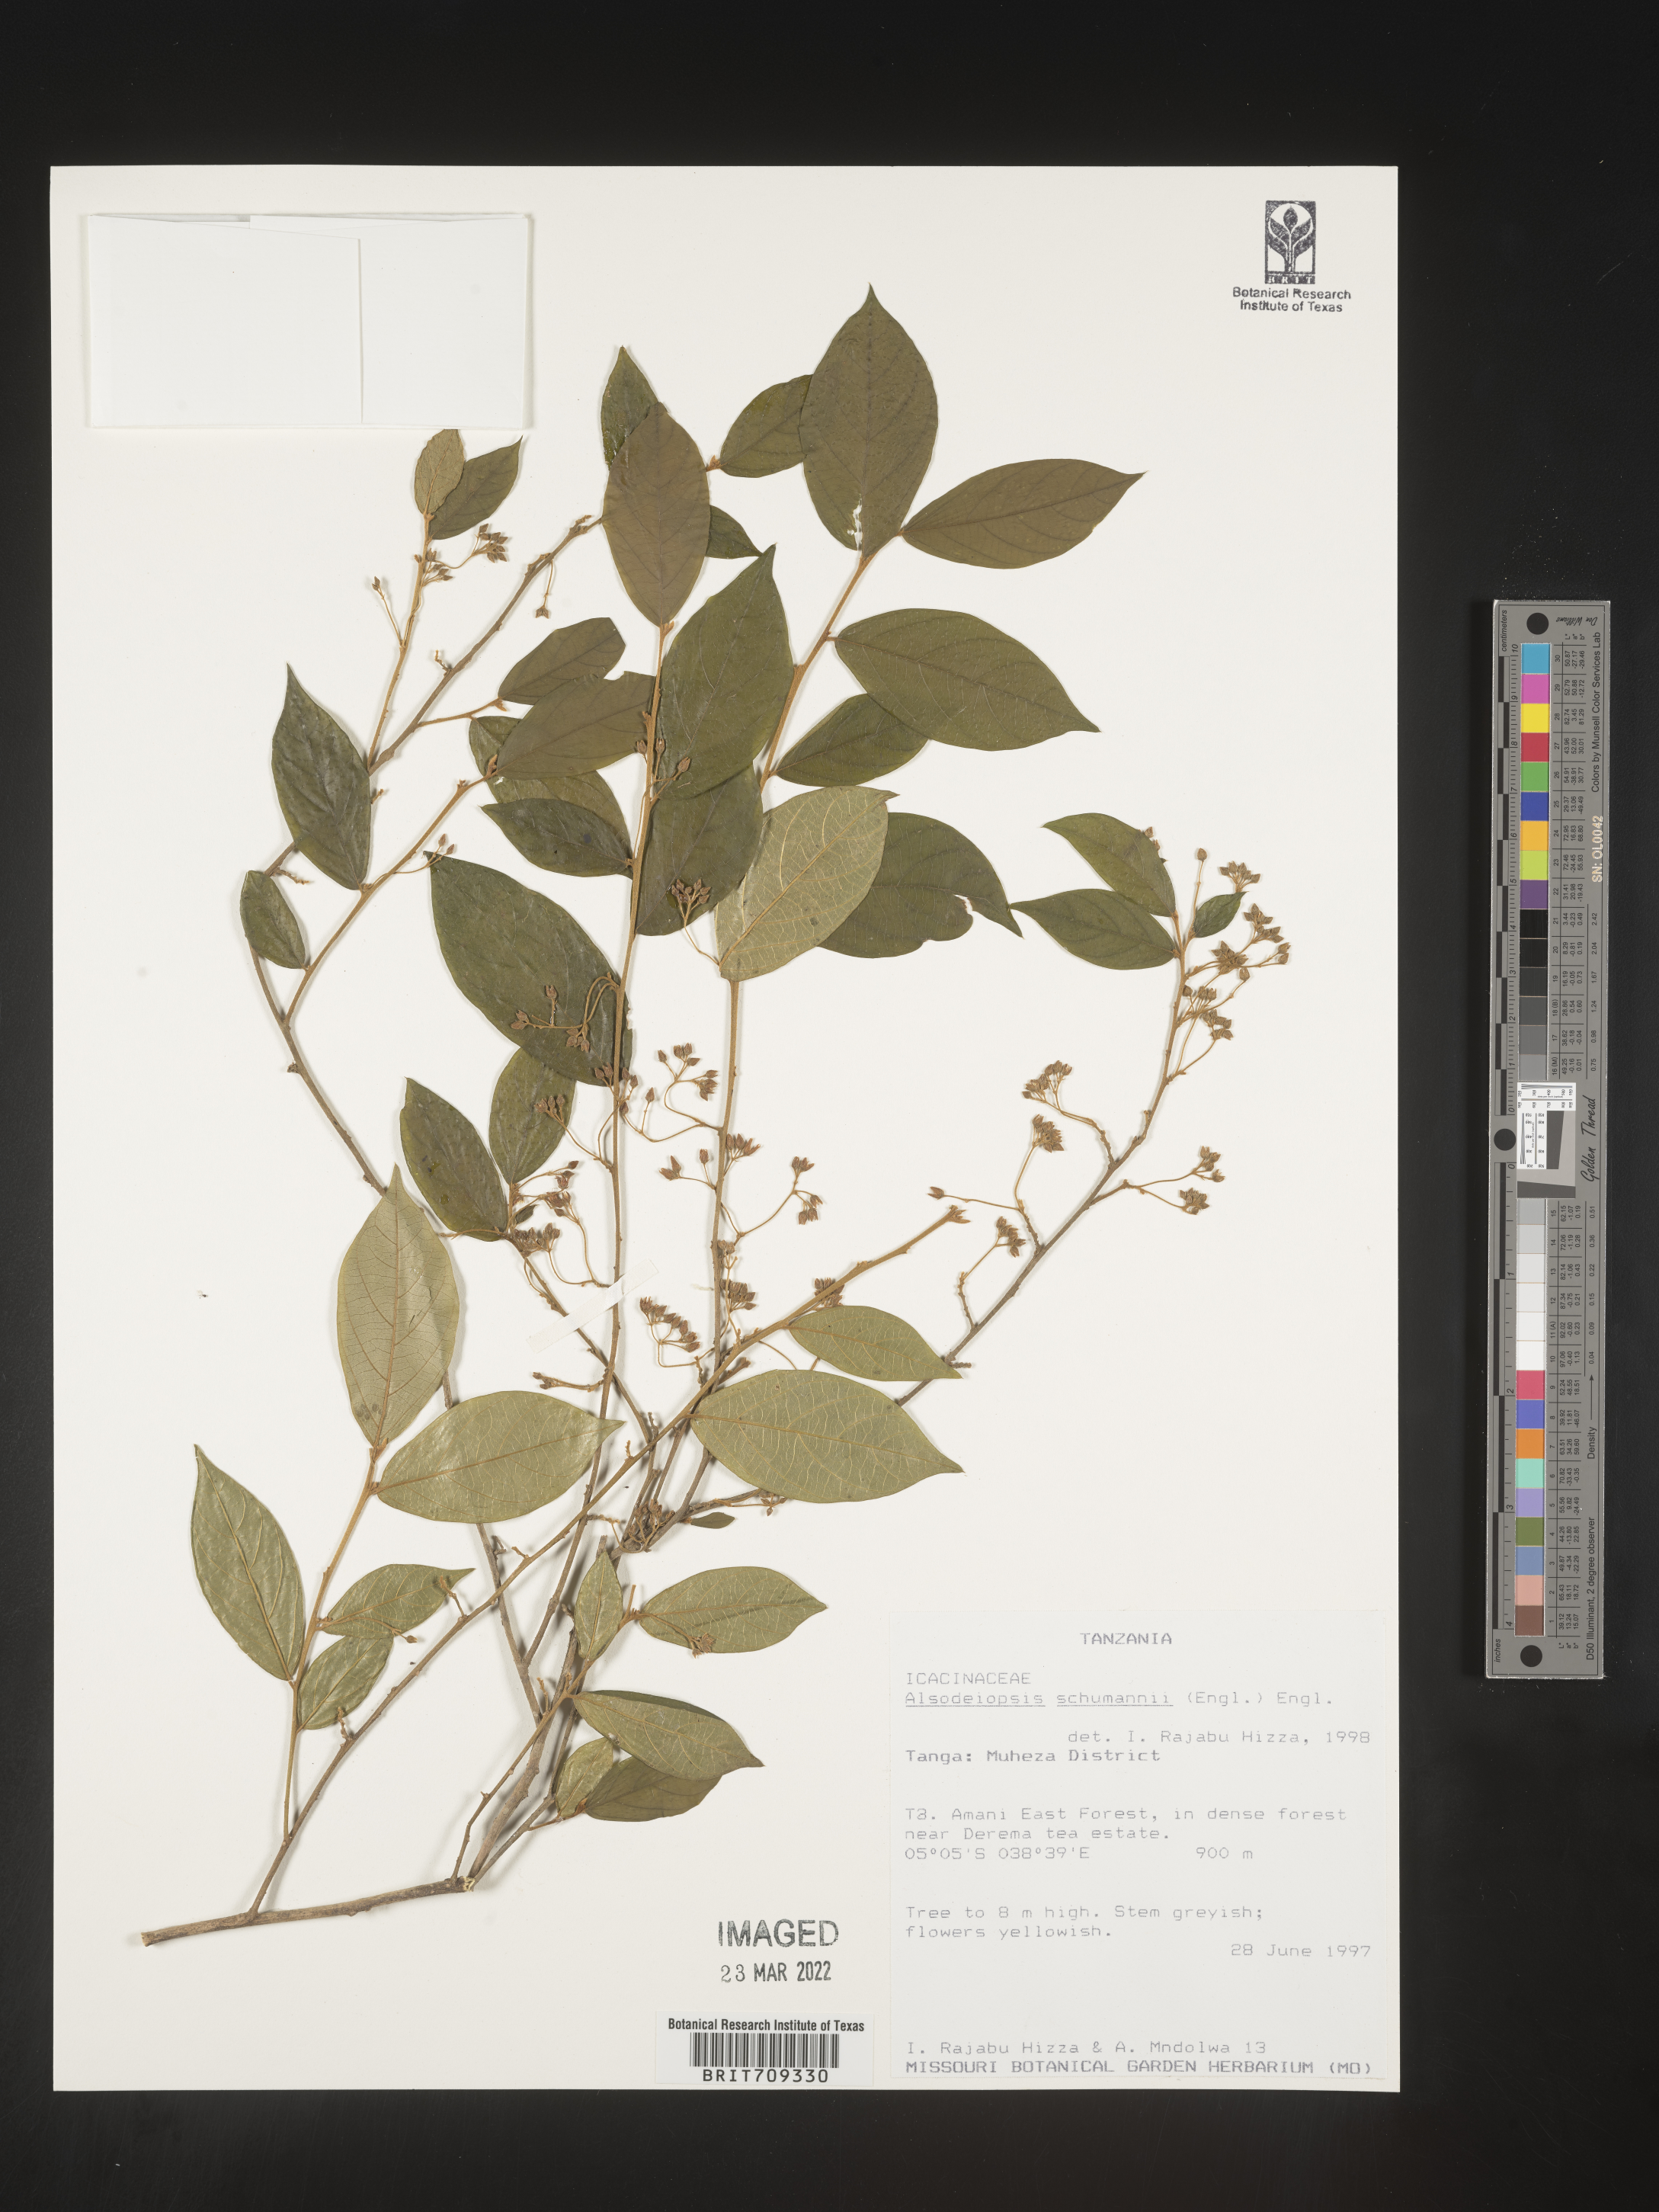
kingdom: Plantae
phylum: Tracheophyta
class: Magnoliopsida
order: Icacinales
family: Icacinaceae
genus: Alsodeiopsis
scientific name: Alsodeiopsis
